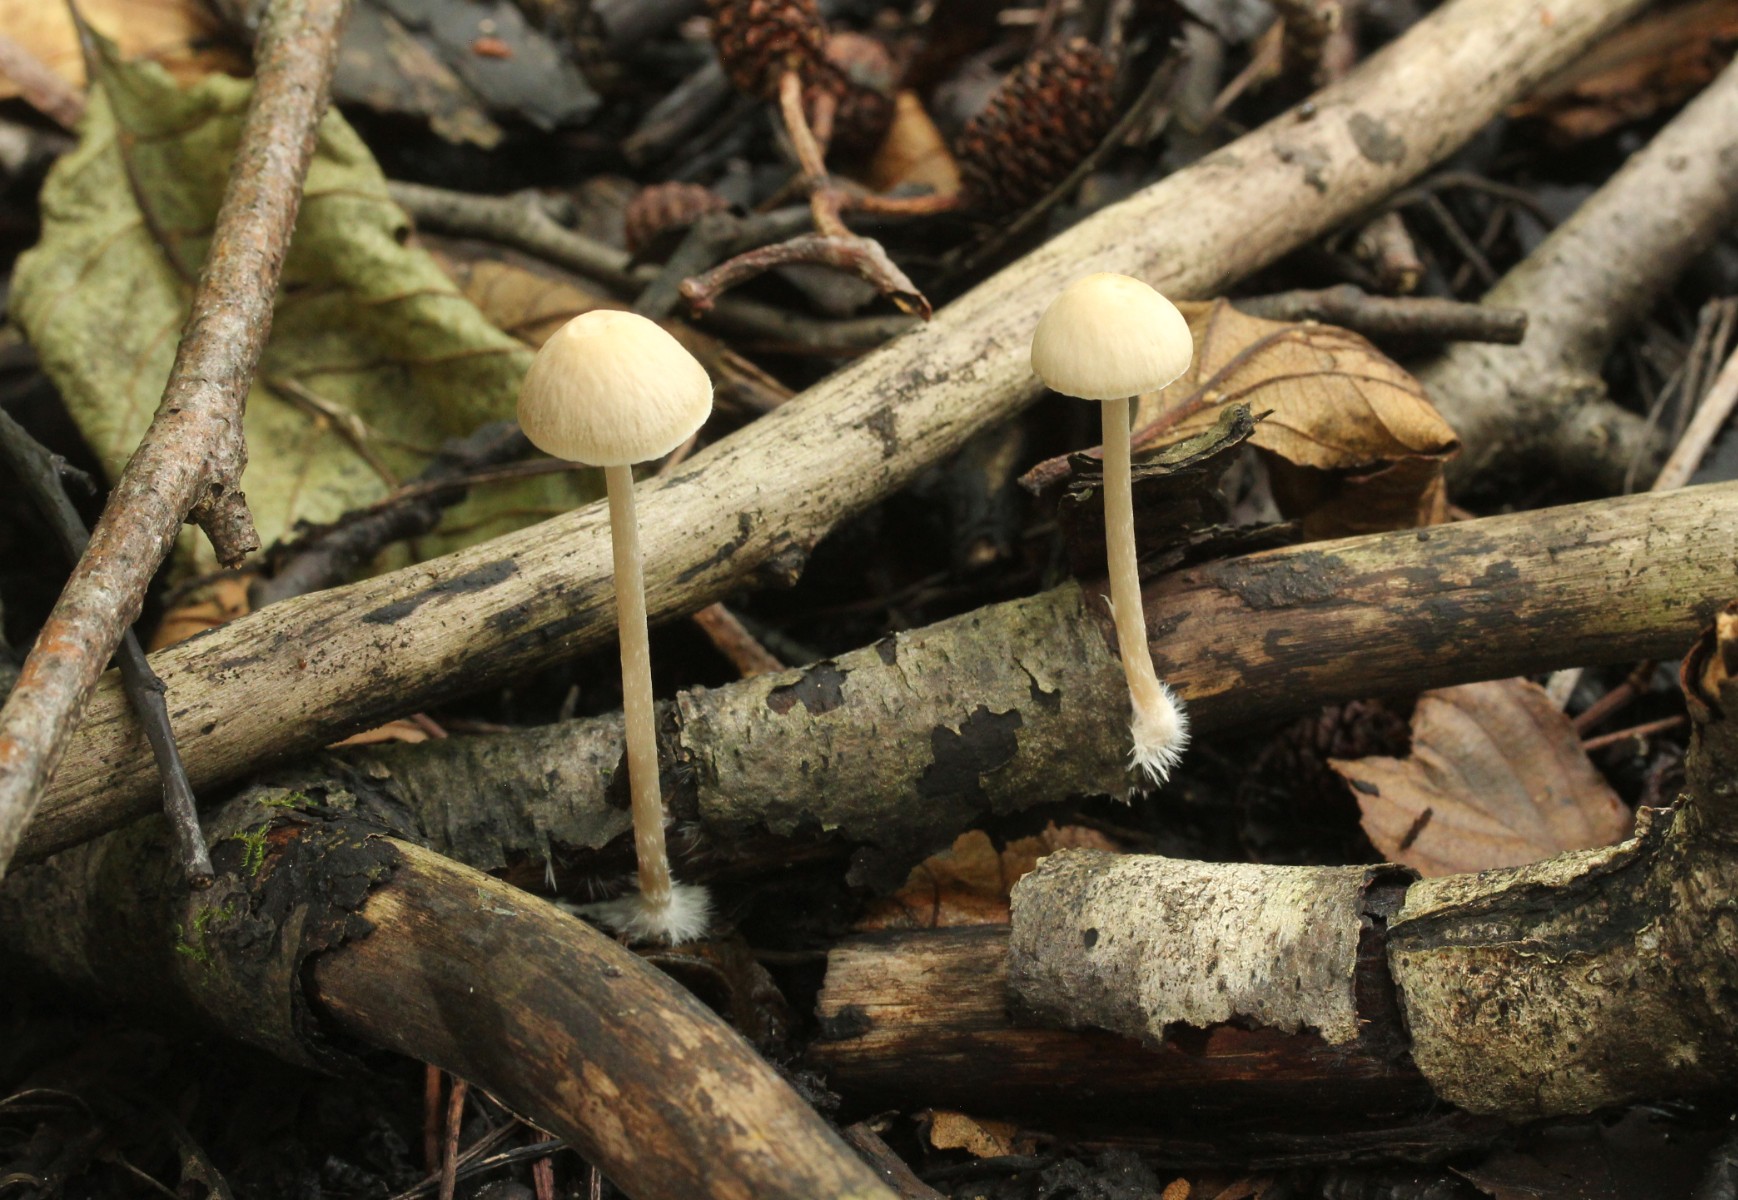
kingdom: Fungi
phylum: Basidiomycota
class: Agaricomycetes
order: Agaricales
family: Psathyrellaceae
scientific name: Psathyrellaceae
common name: mørkhatfamilien
